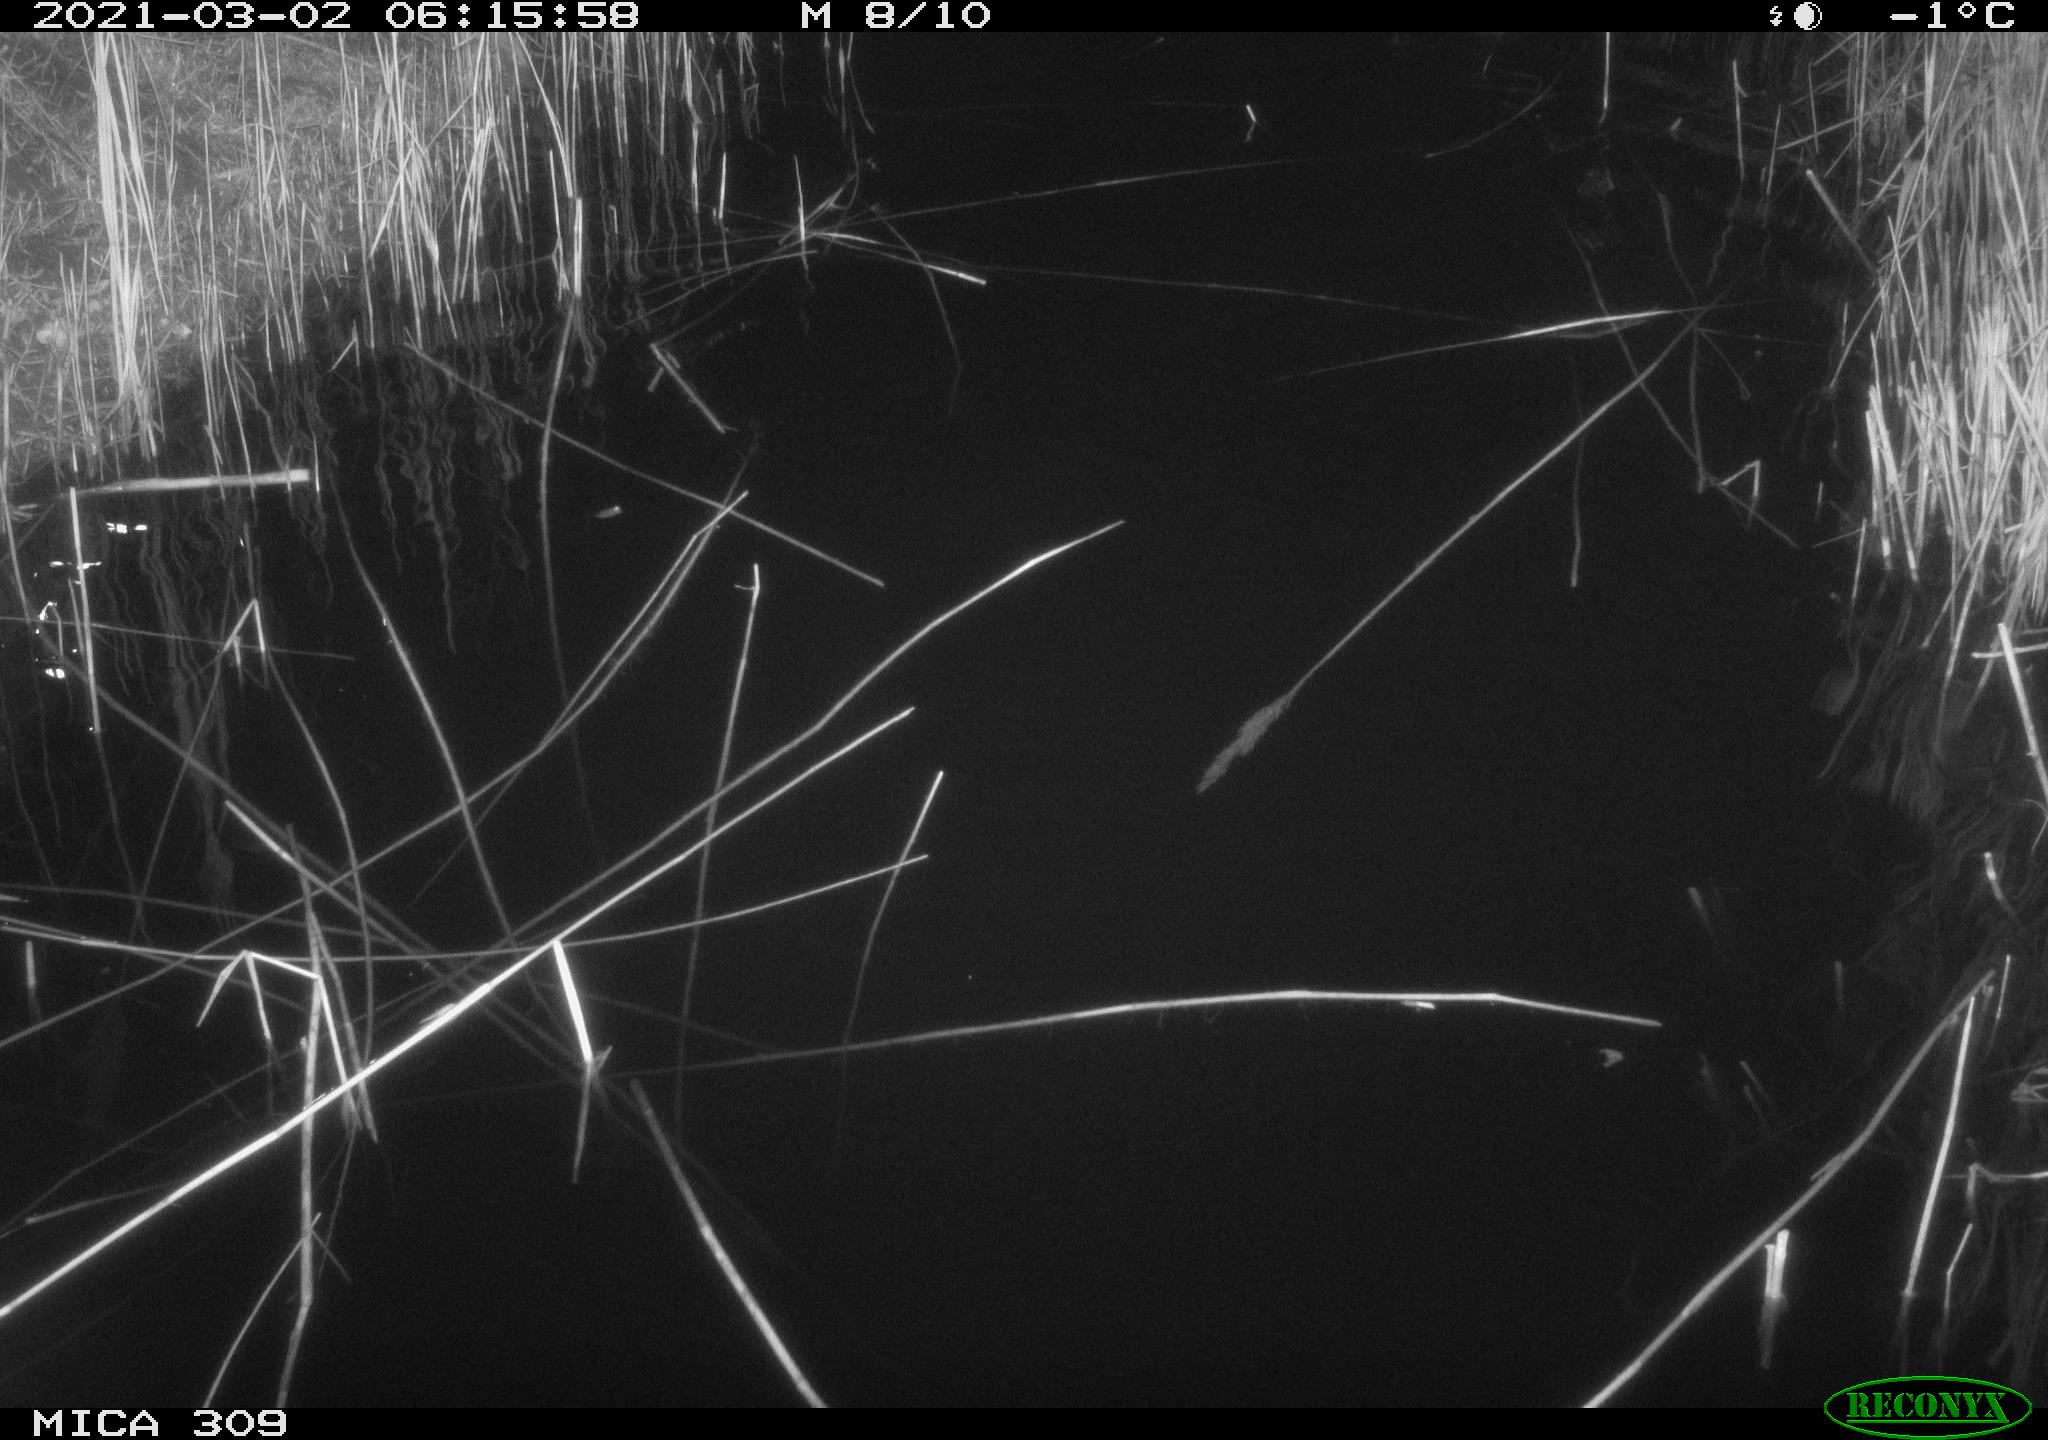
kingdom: Animalia
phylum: Chordata
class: Mammalia
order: Rodentia
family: Cricetidae
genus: Ondatra
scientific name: Ondatra zibethicus
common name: Muskrat
